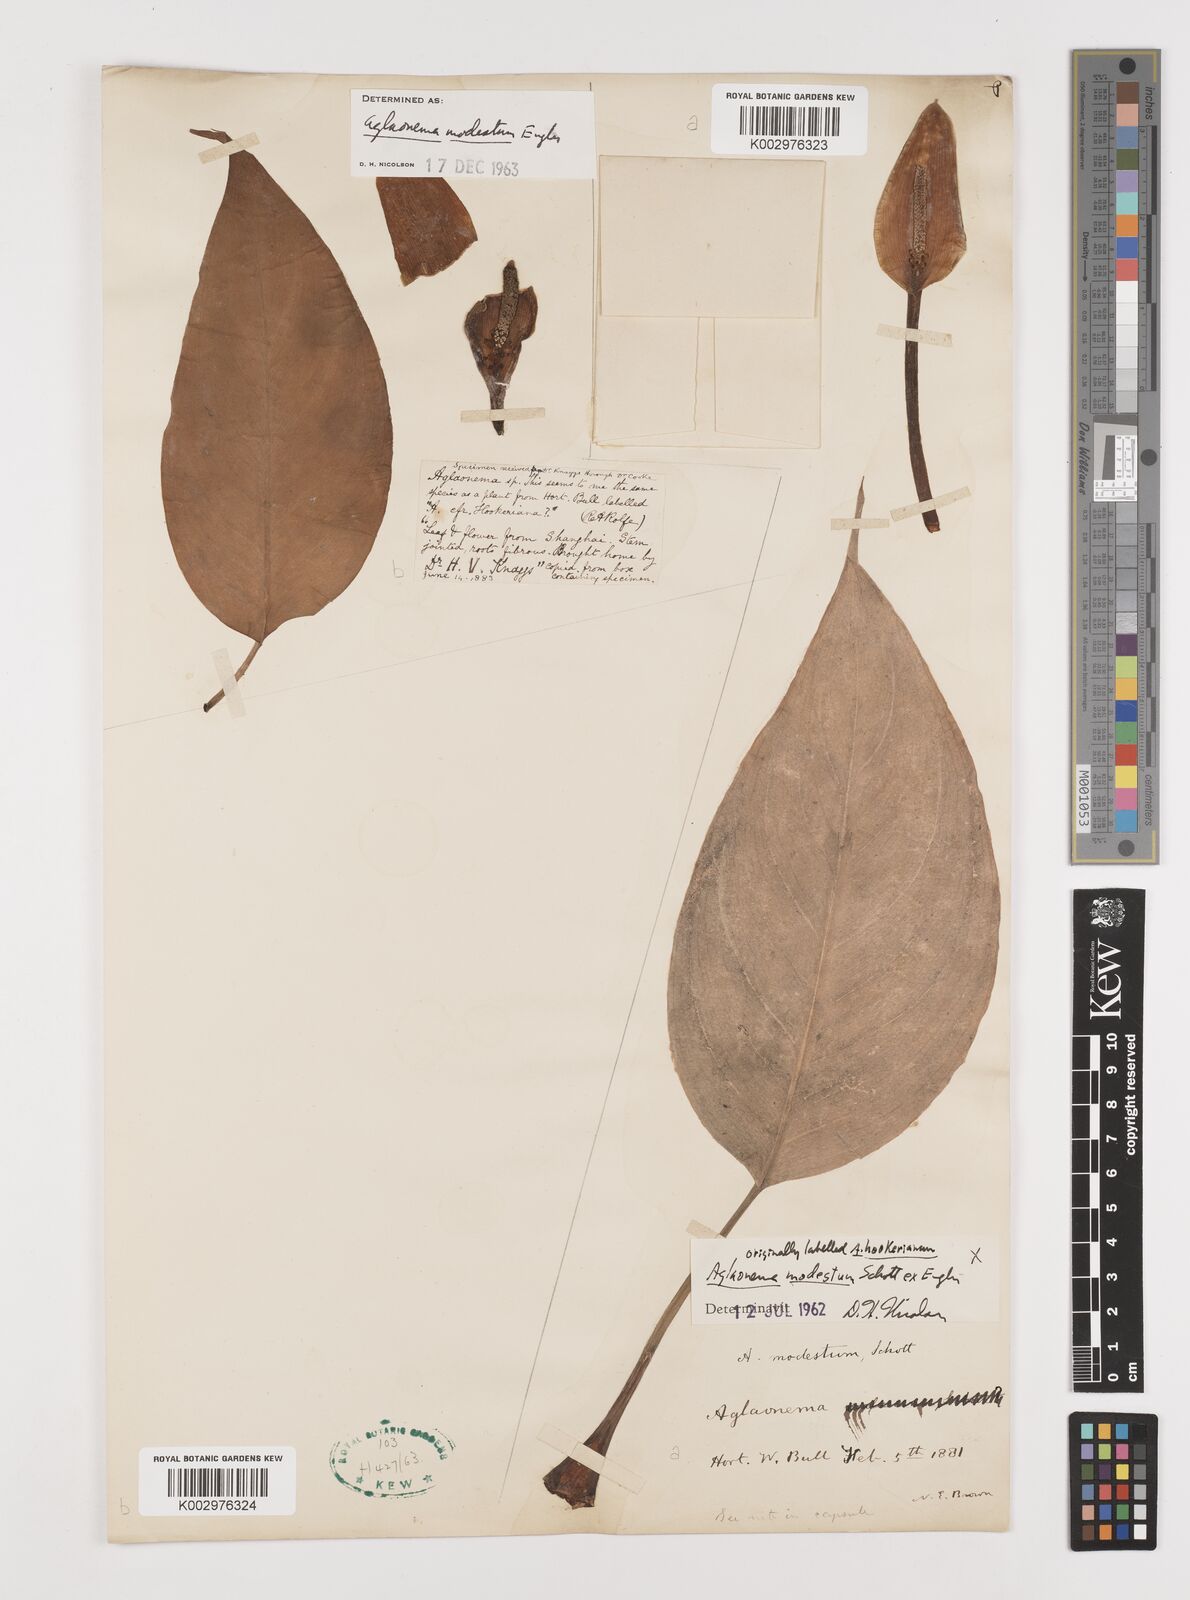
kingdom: Plantae
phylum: Tracheophyta
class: Liliopsida
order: Alismatales
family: Araceae
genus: Aglaonema
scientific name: Aglaonema modestum
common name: Chinese evergreen
